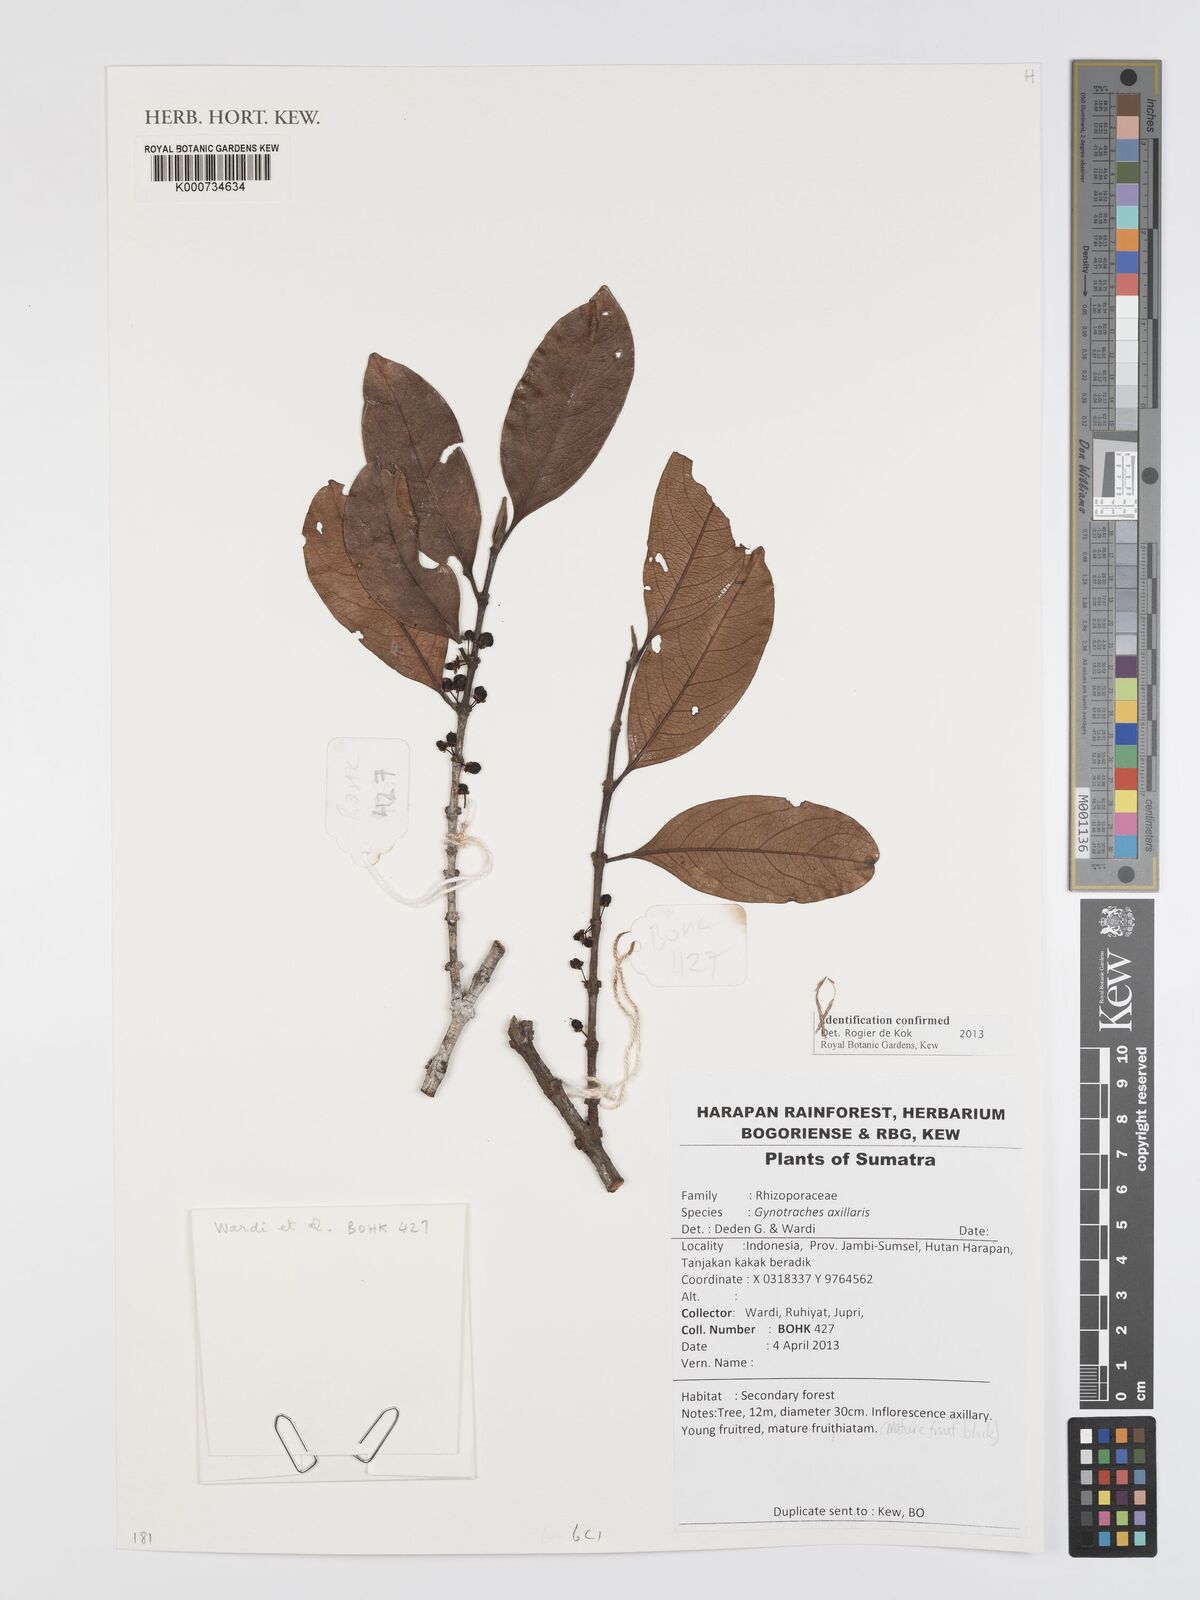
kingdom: Plantae
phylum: Tracheophyta
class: Magnoliopsida
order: Malpighiales
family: Rhizophoraceae
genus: Gynotroches
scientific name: Gynotroches axillaris
